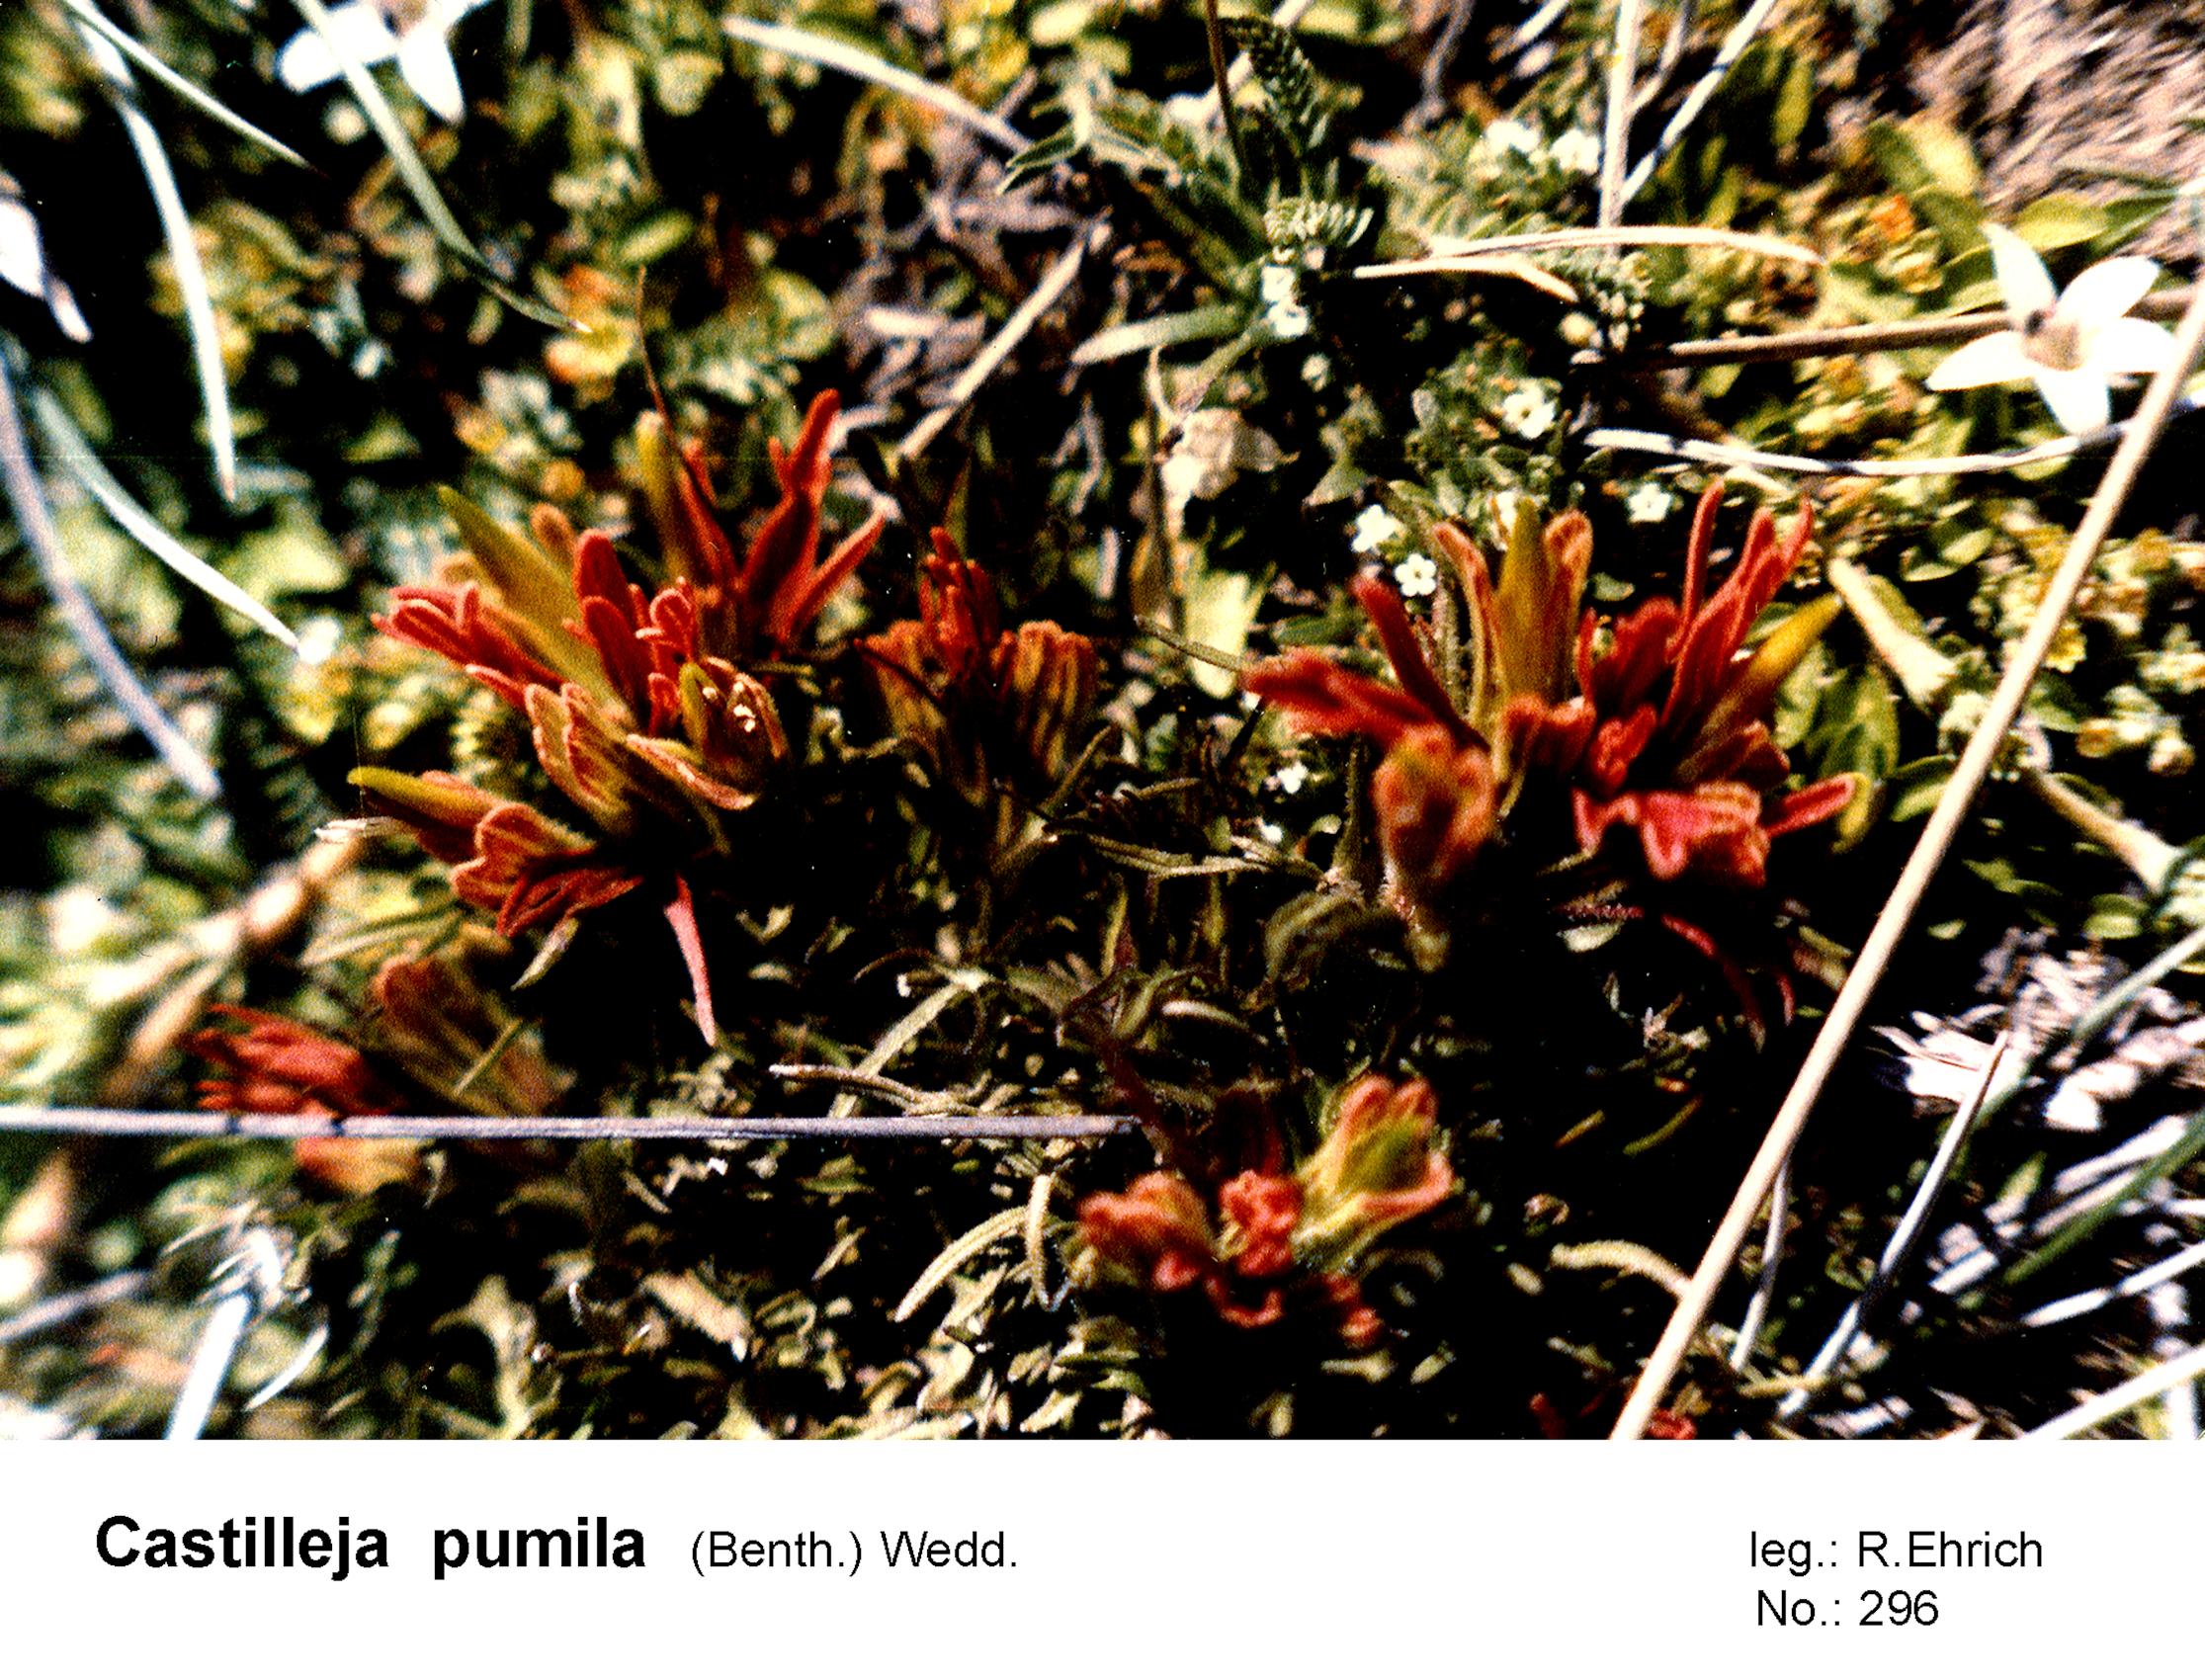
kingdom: Plantae
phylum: Tracheophyta
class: Magnoliopsida
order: Lamiales
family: Orobanchaceae
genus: Castilleja
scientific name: Castilleja pumila
